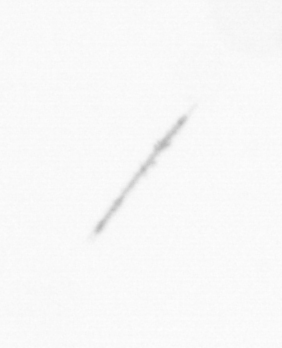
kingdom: Chromista
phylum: Ochrophyta
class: Bacillariophyceae
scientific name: Bacillariophyceae
